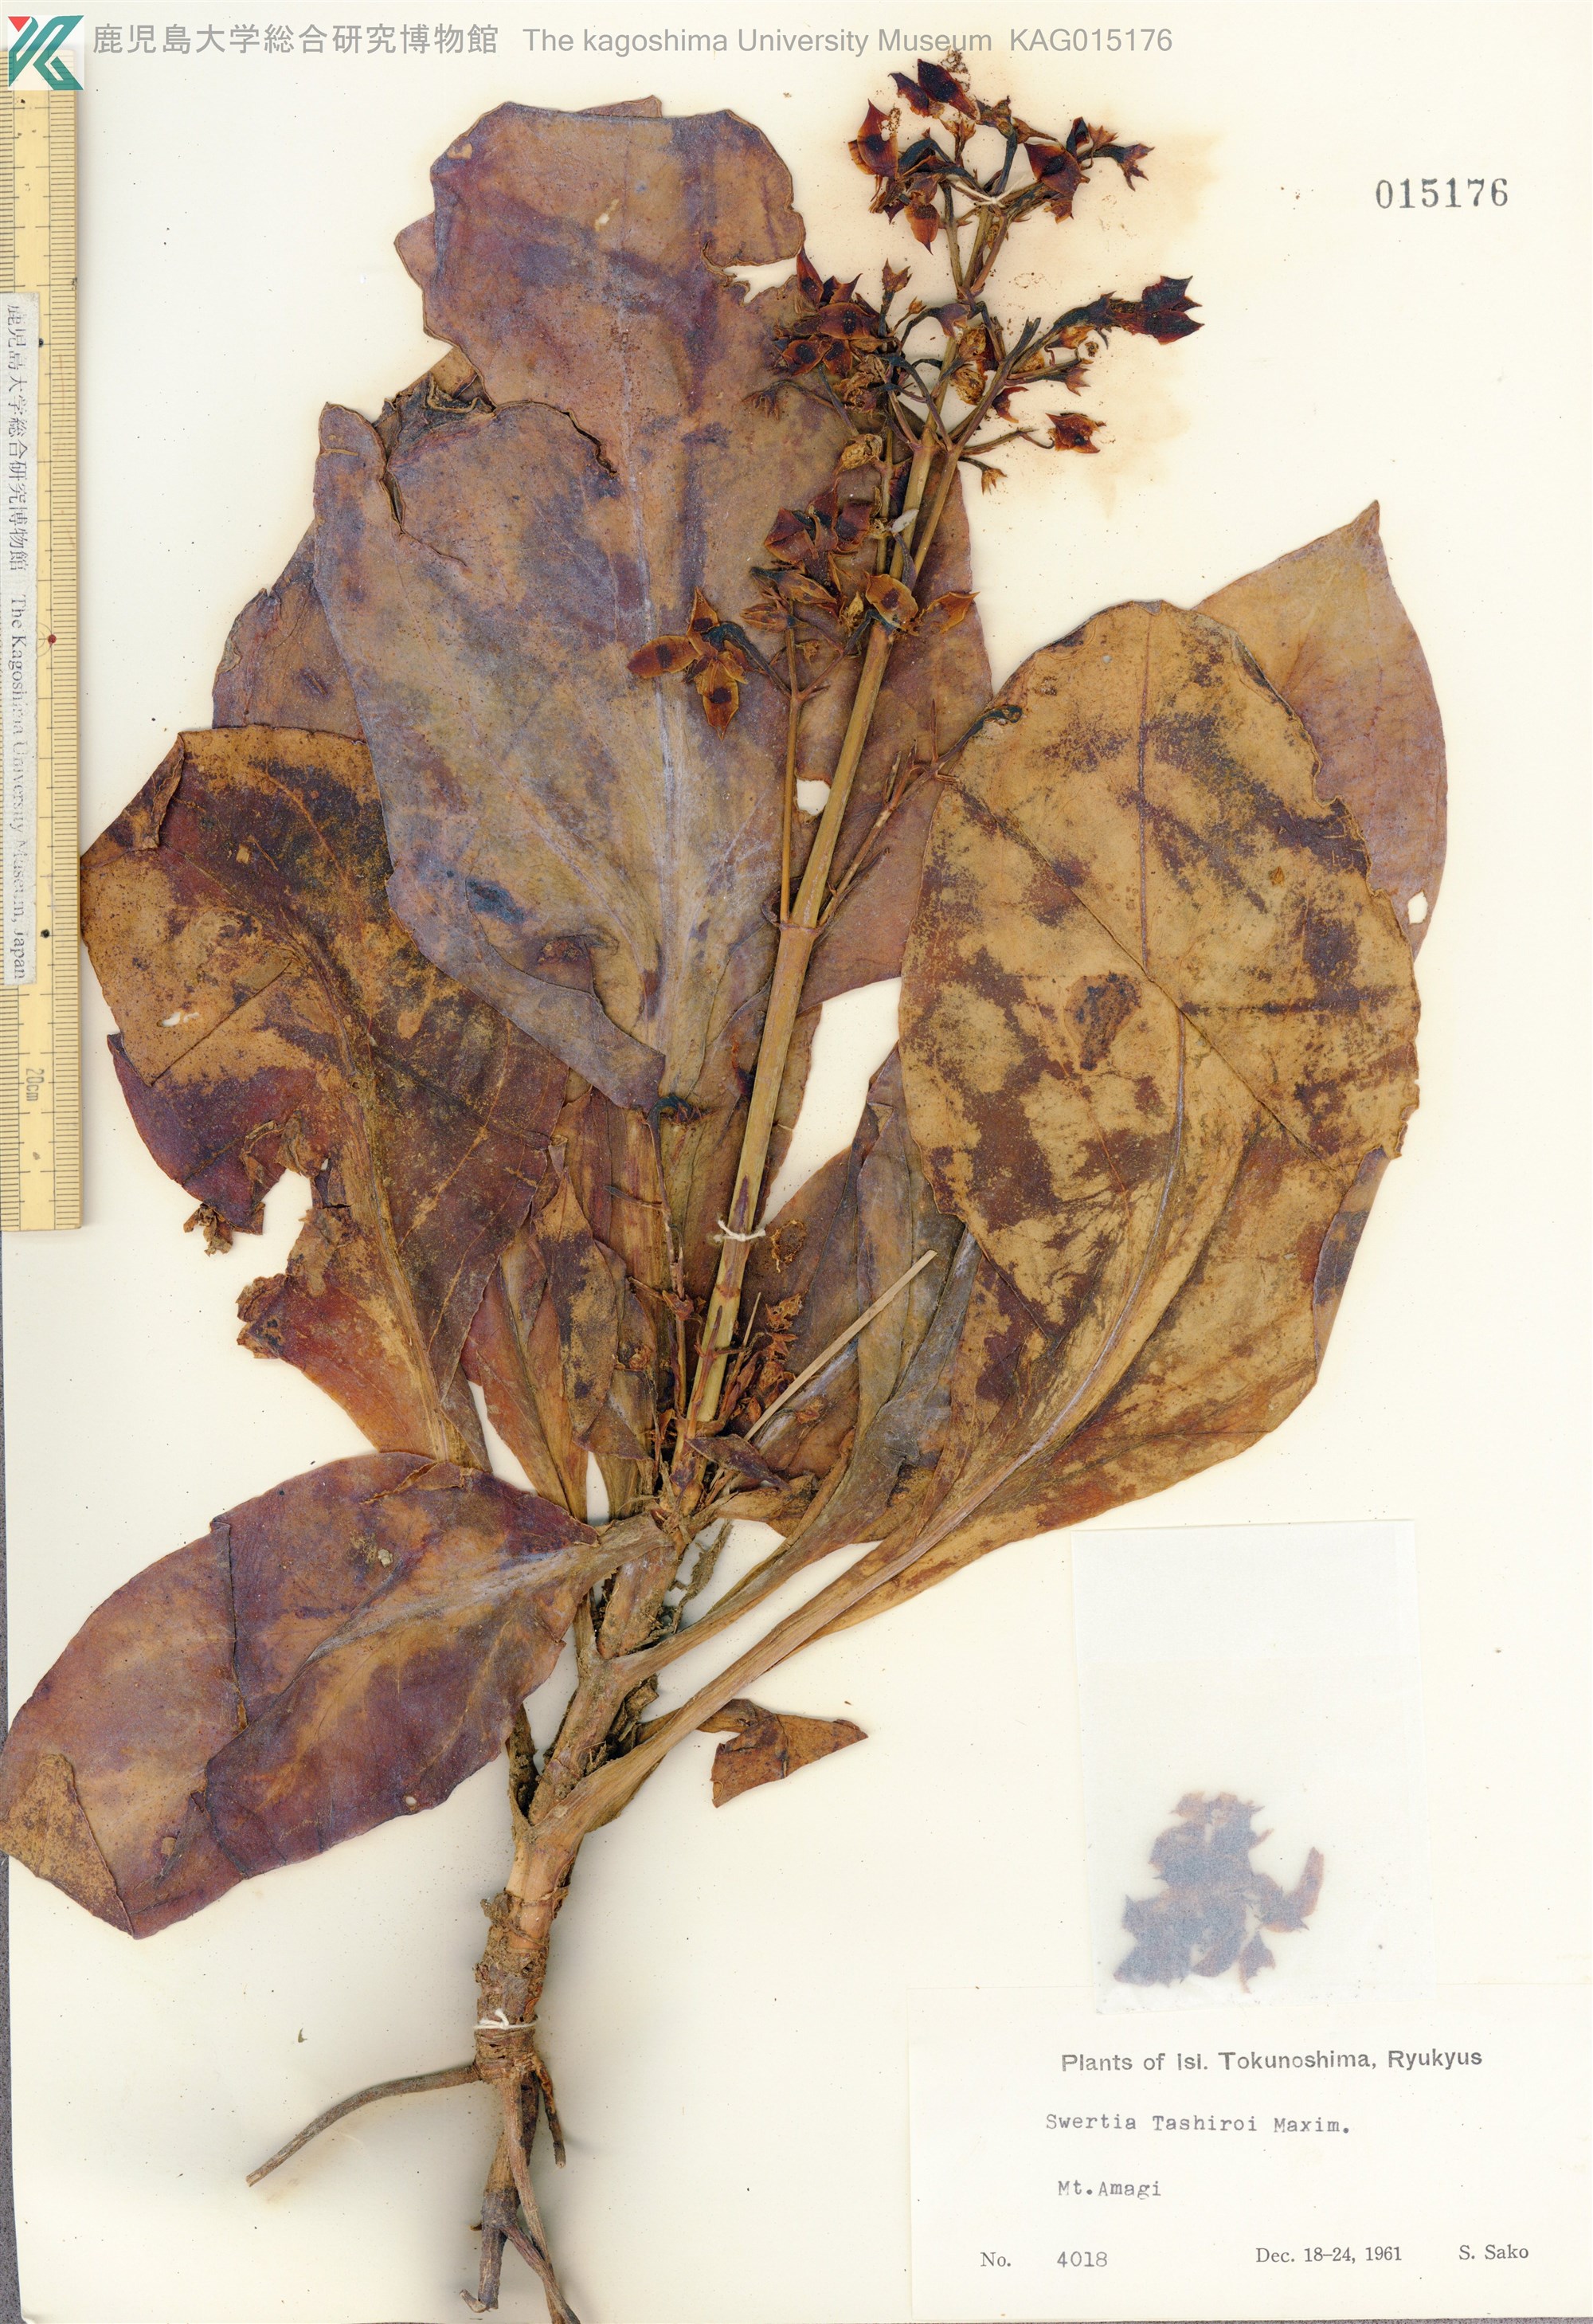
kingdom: Plantae
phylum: Tracheophyta
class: Magnoliopsida
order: Gentianales
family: Gentianaceae
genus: Swertia
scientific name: Swertia tashiroi
